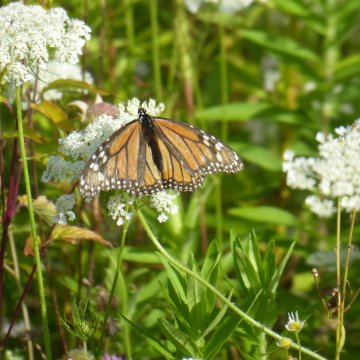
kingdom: Animalia
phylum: Arthropoda
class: Insecta
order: Lepidoptera
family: Nymphalidae
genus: Danaus
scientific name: Danaus plexippus
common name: Monarch
